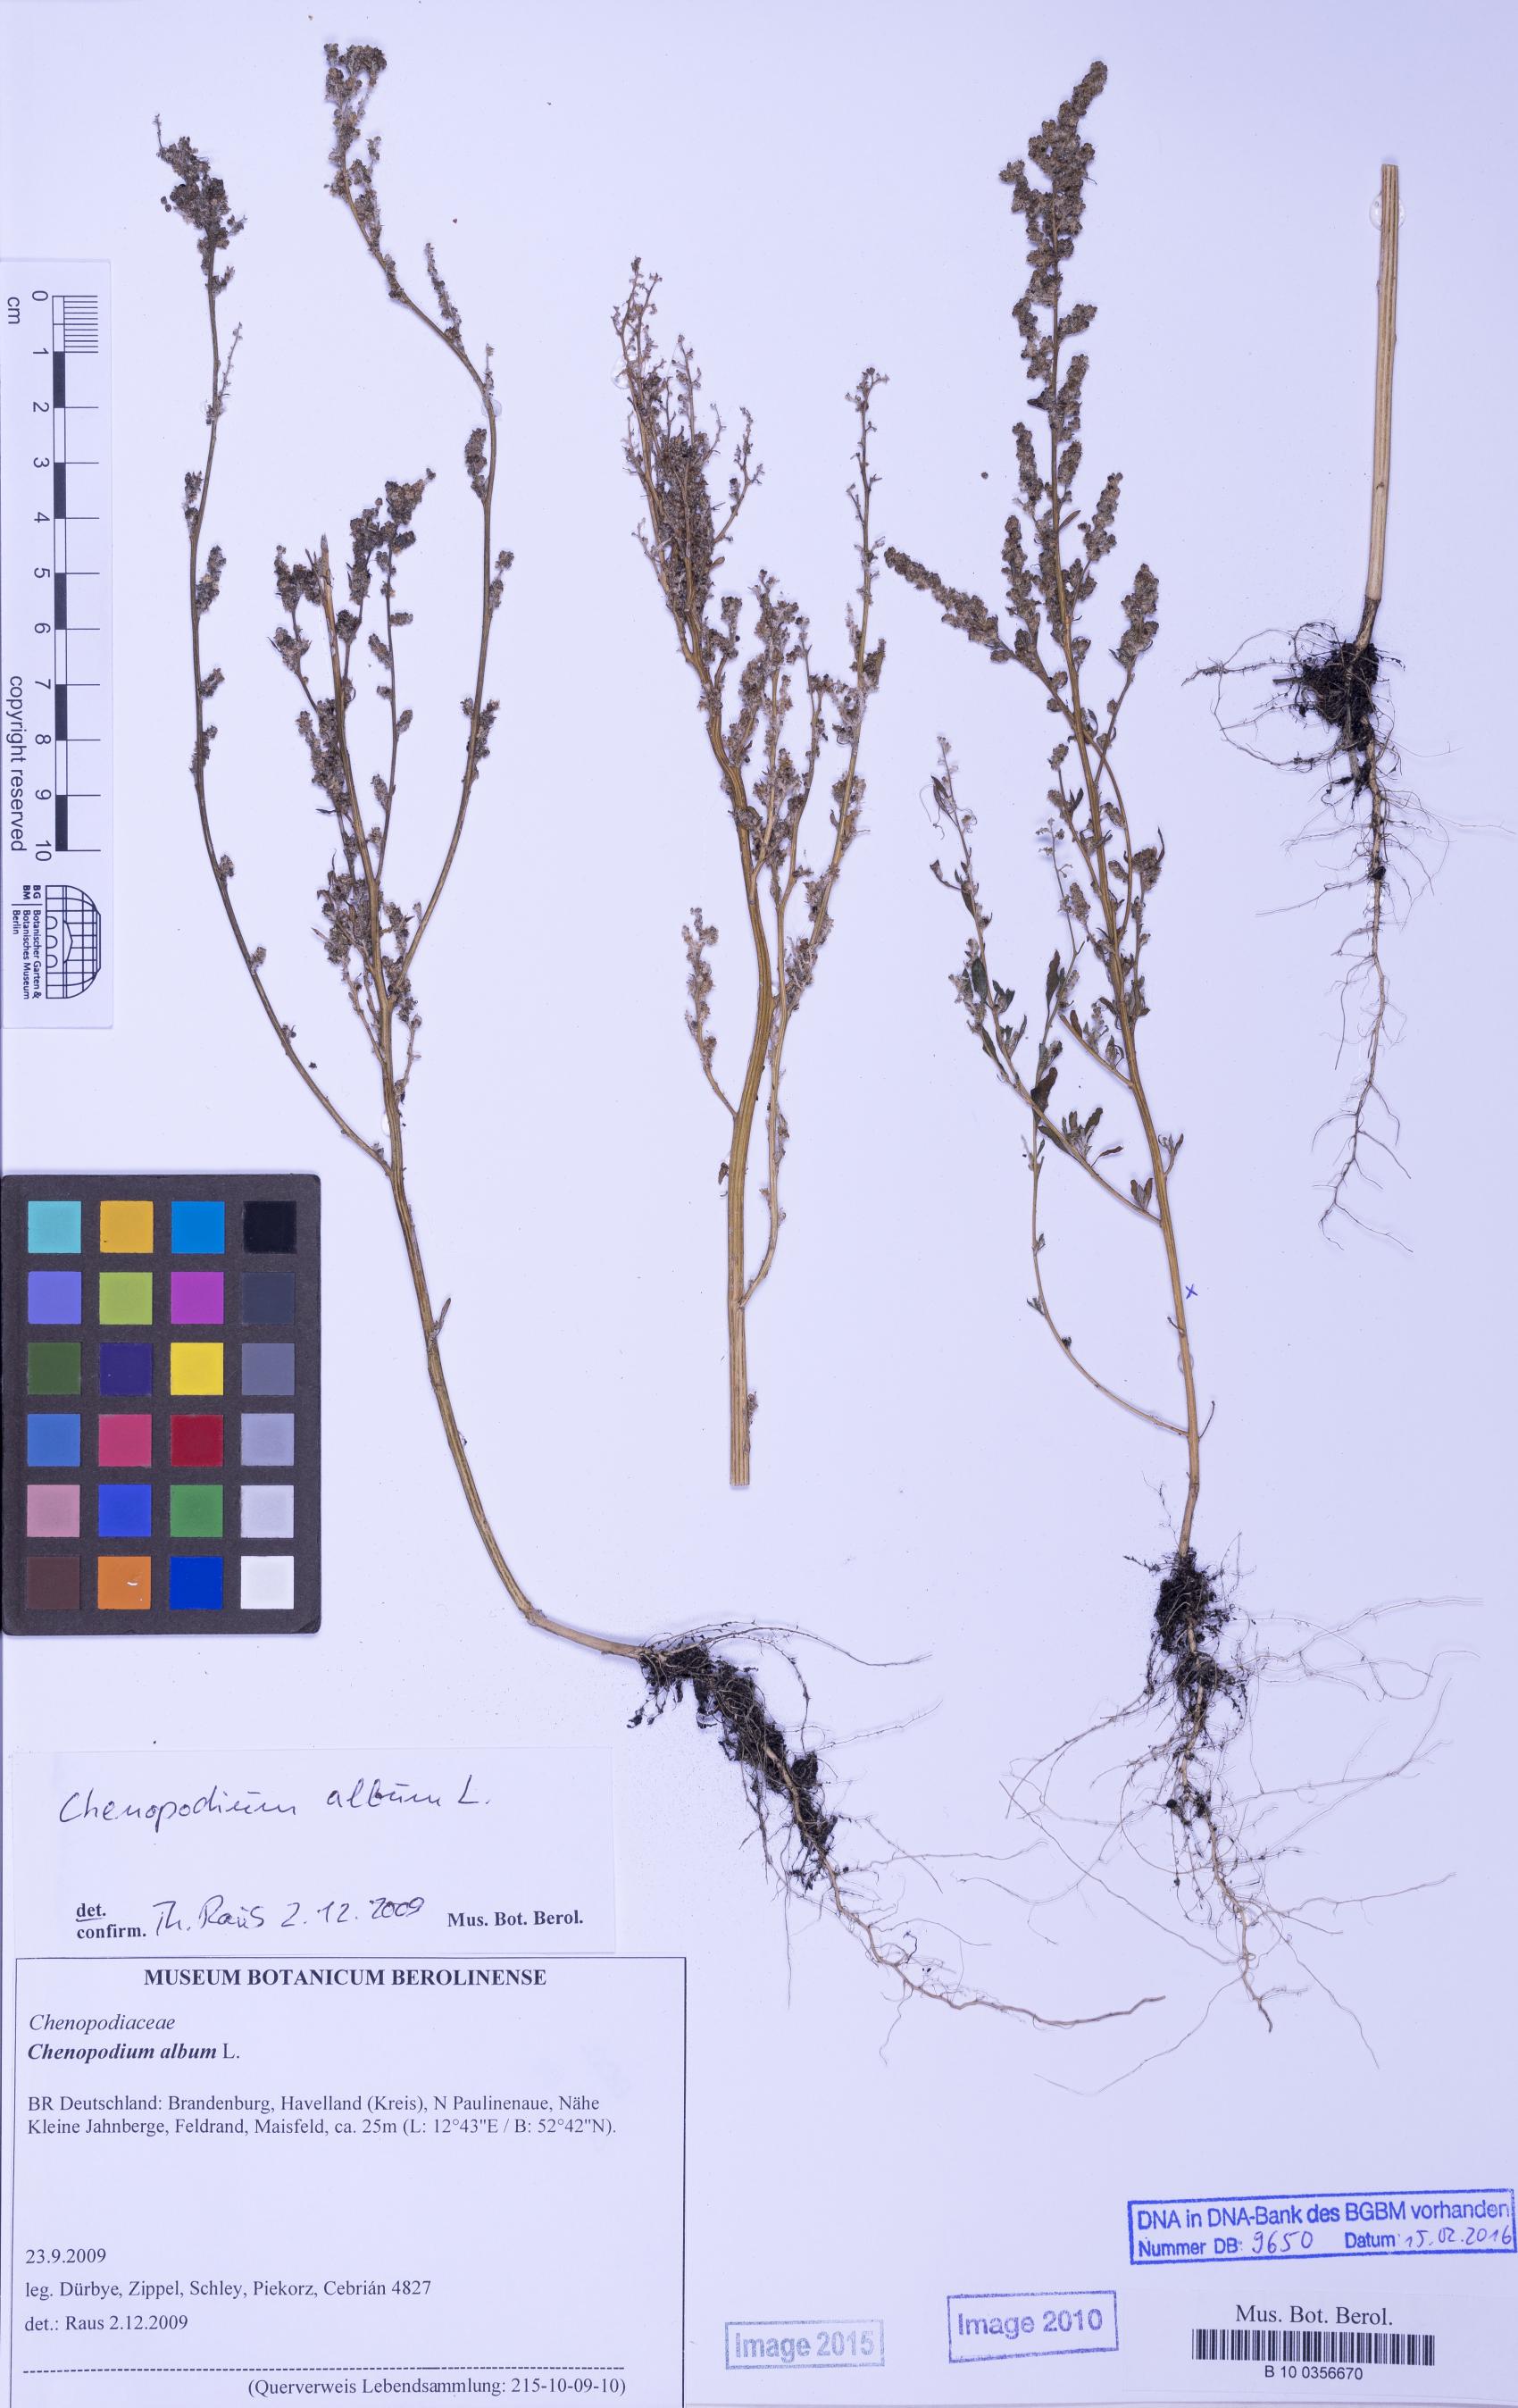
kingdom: Plantae
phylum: Tracheophyta
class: Magnoliopsida
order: Caryophyllales
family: Amaranthaceae
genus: Chenopodium
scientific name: Chenopodium album
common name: Fat-hen
